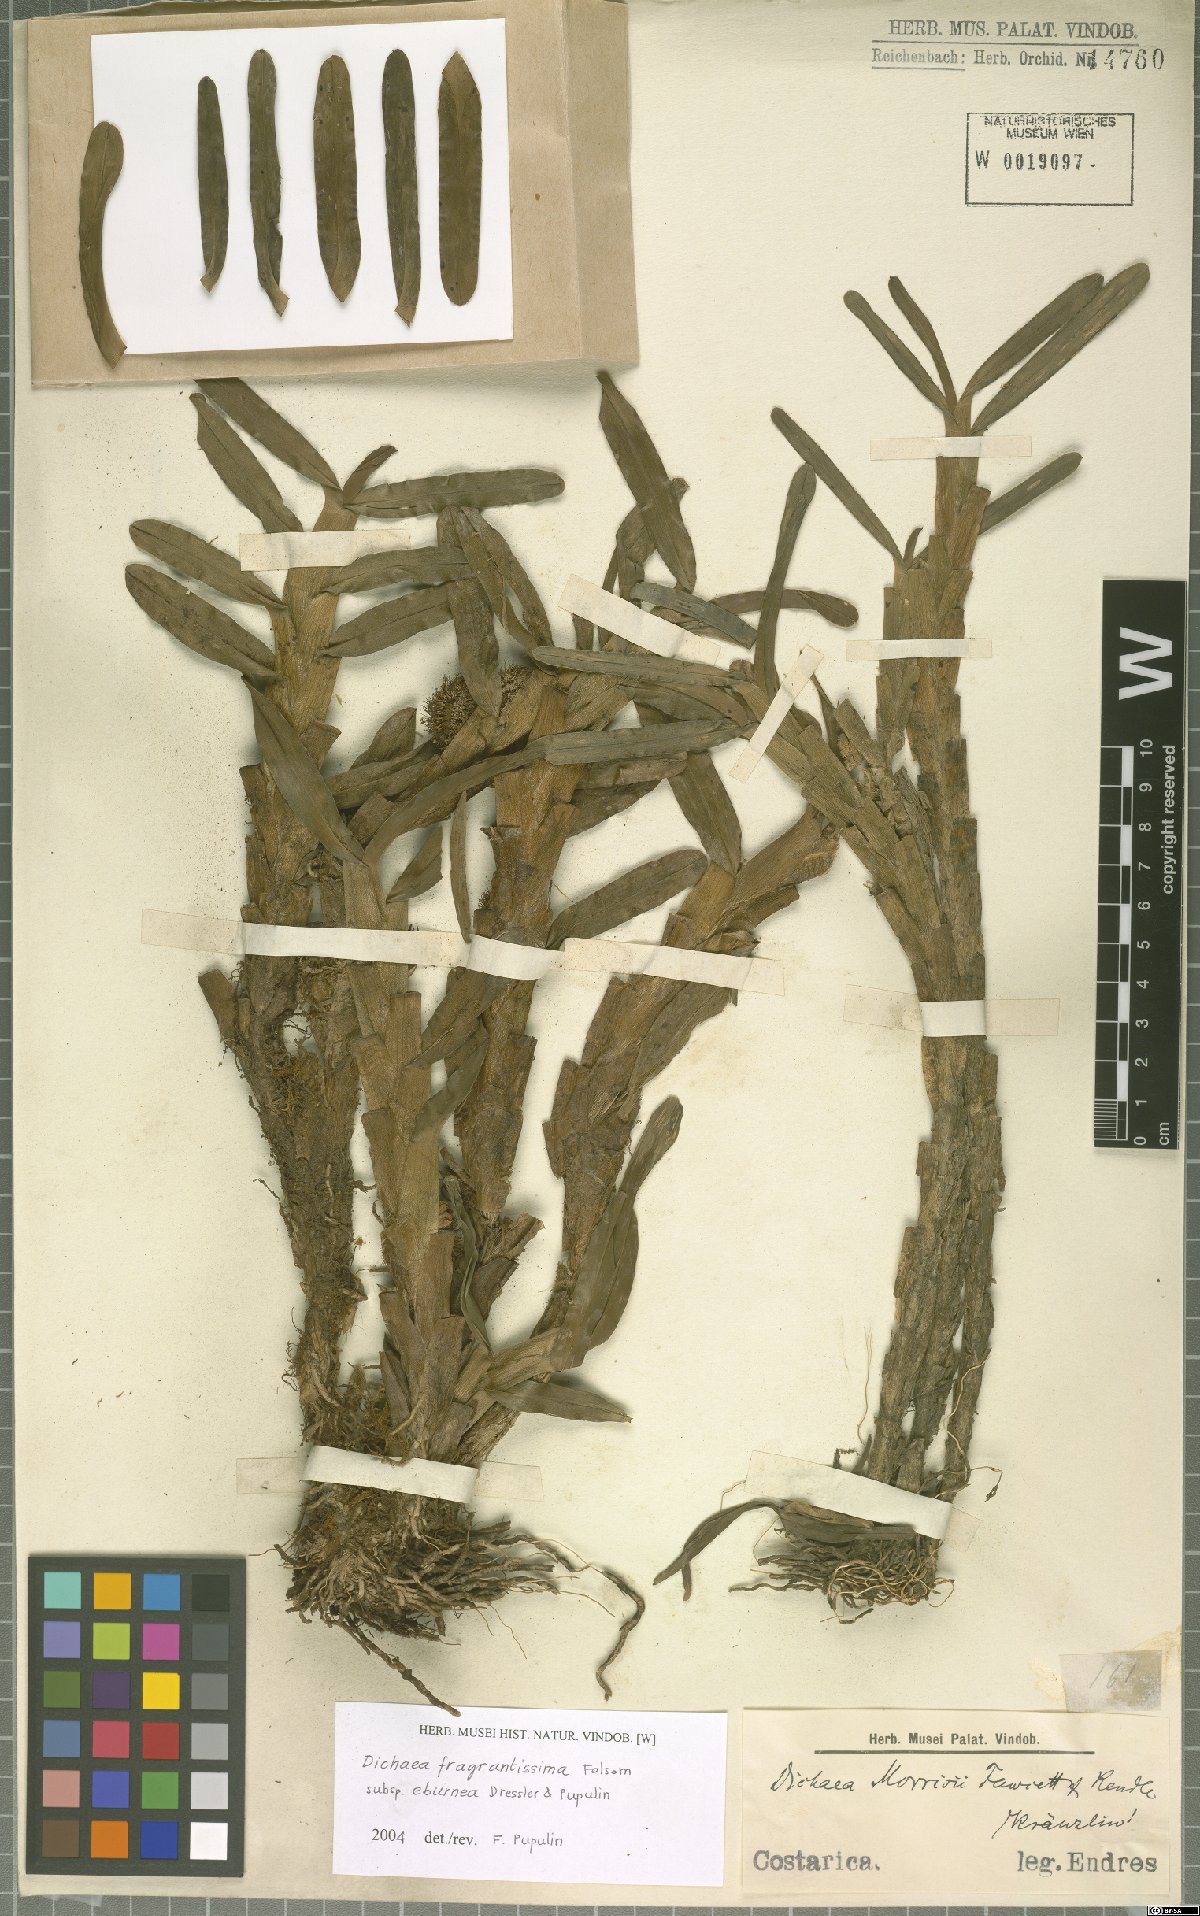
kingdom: Plantae
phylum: Tracheophyta
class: Liliopsida
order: Asparagales
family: Orchidaceae
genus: Dichaea
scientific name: Dichaea eburnea
